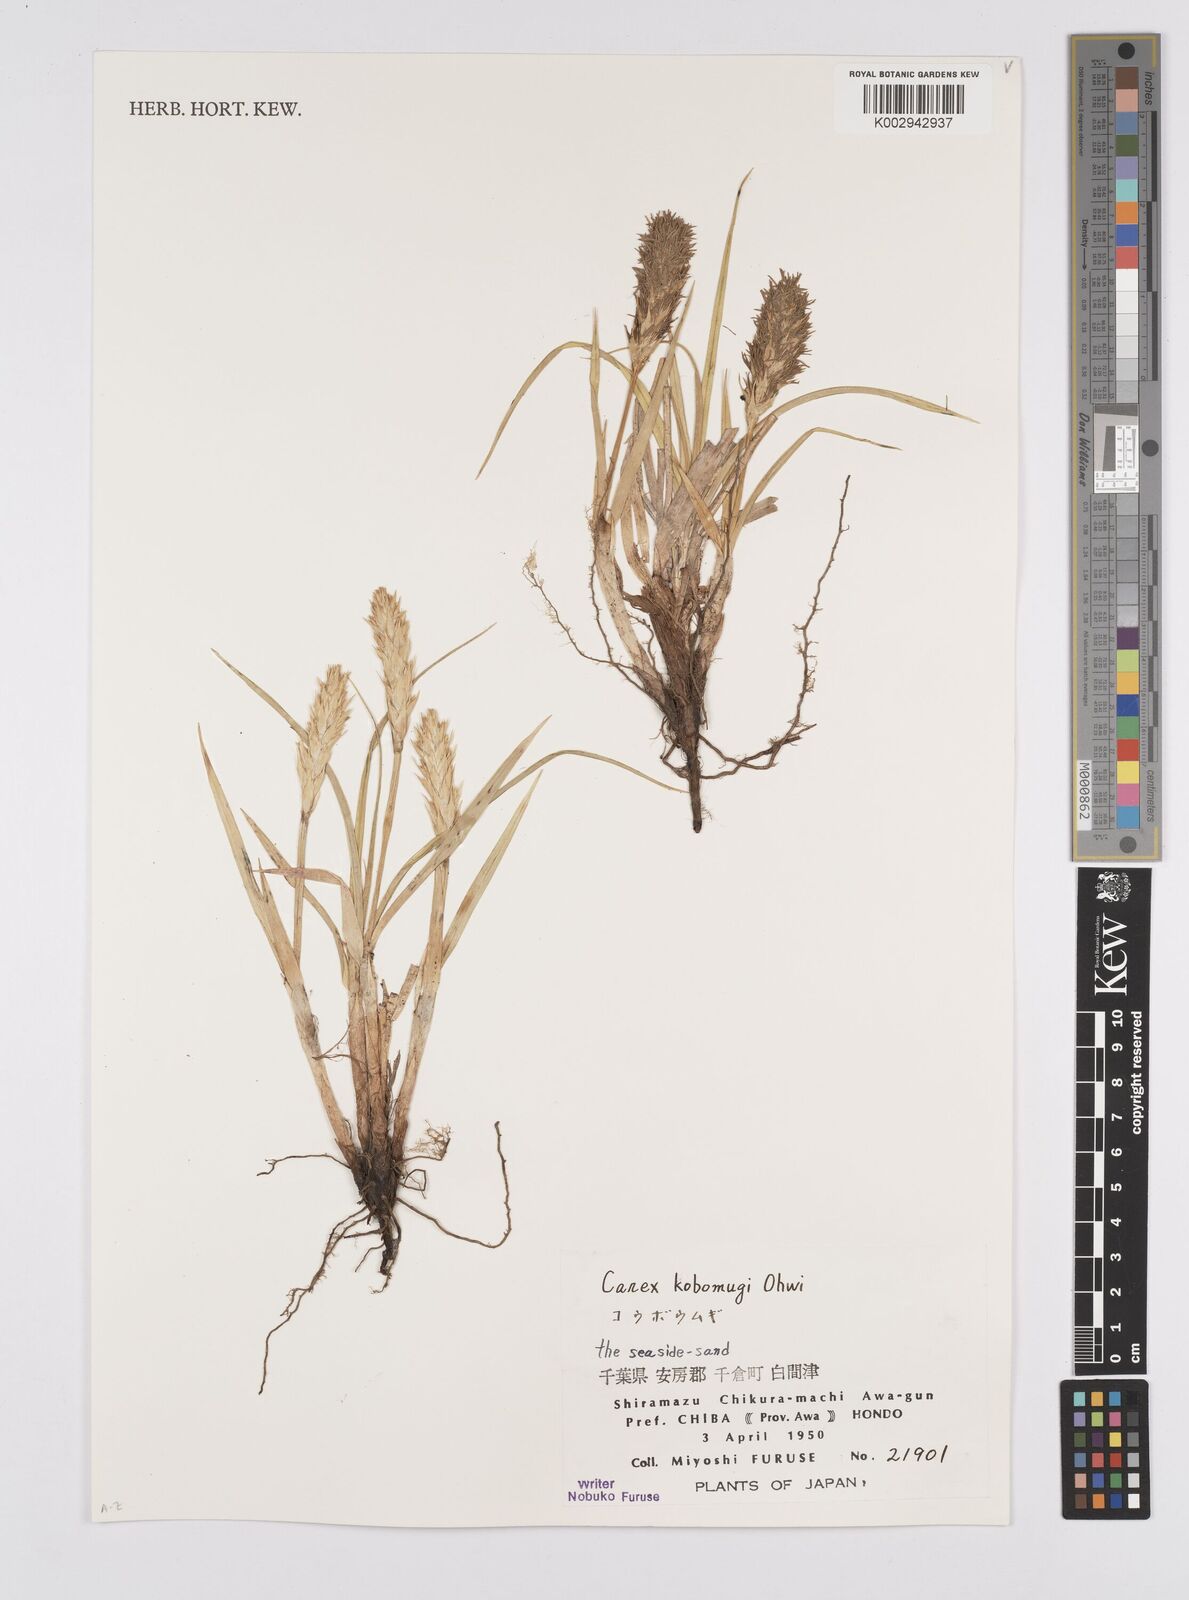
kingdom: Plantae
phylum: Tracheophyta
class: Liliopsida
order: Poales
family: Cyperaceae
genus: Carex
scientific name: Carex kobomugi
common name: Japanese sedge
